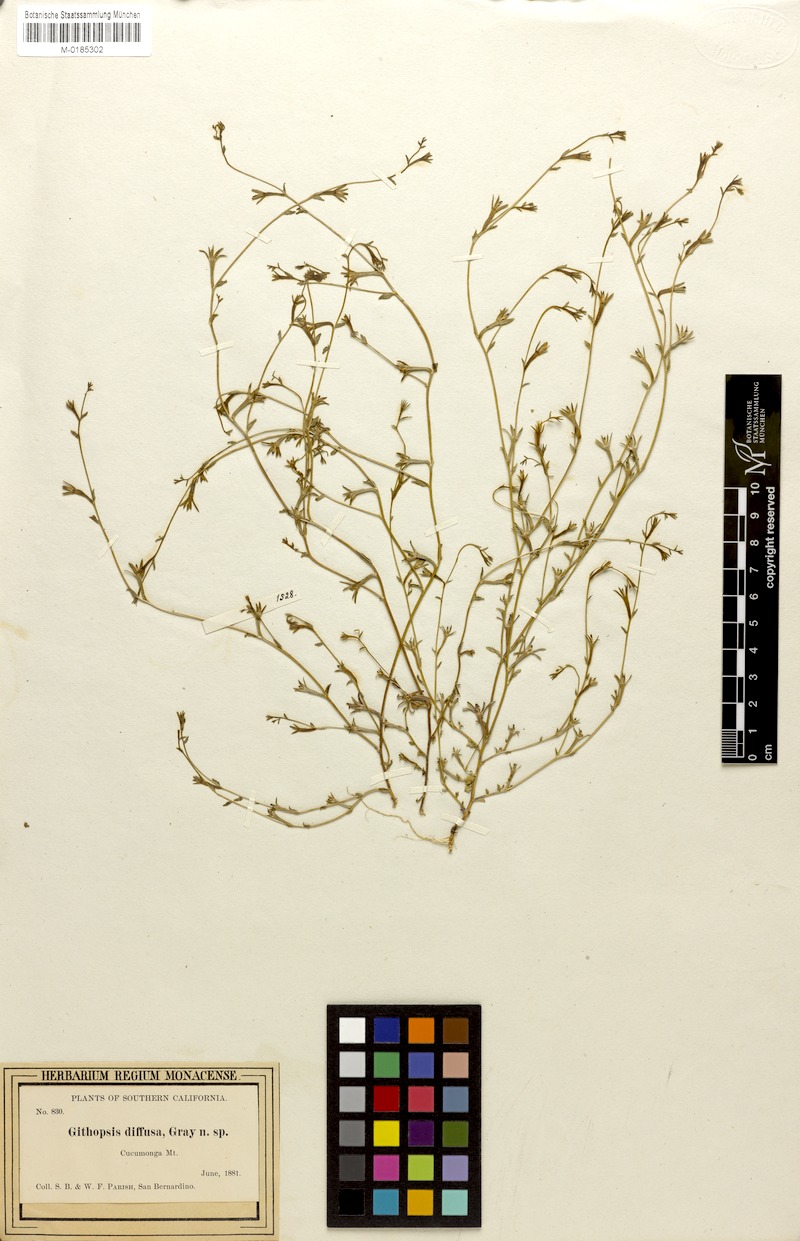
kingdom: Plantae
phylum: Tracheophyta
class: Magnoliopsida
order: Asterales
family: Campanulaceae
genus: Githopsis
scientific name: Githopsis diffusa
